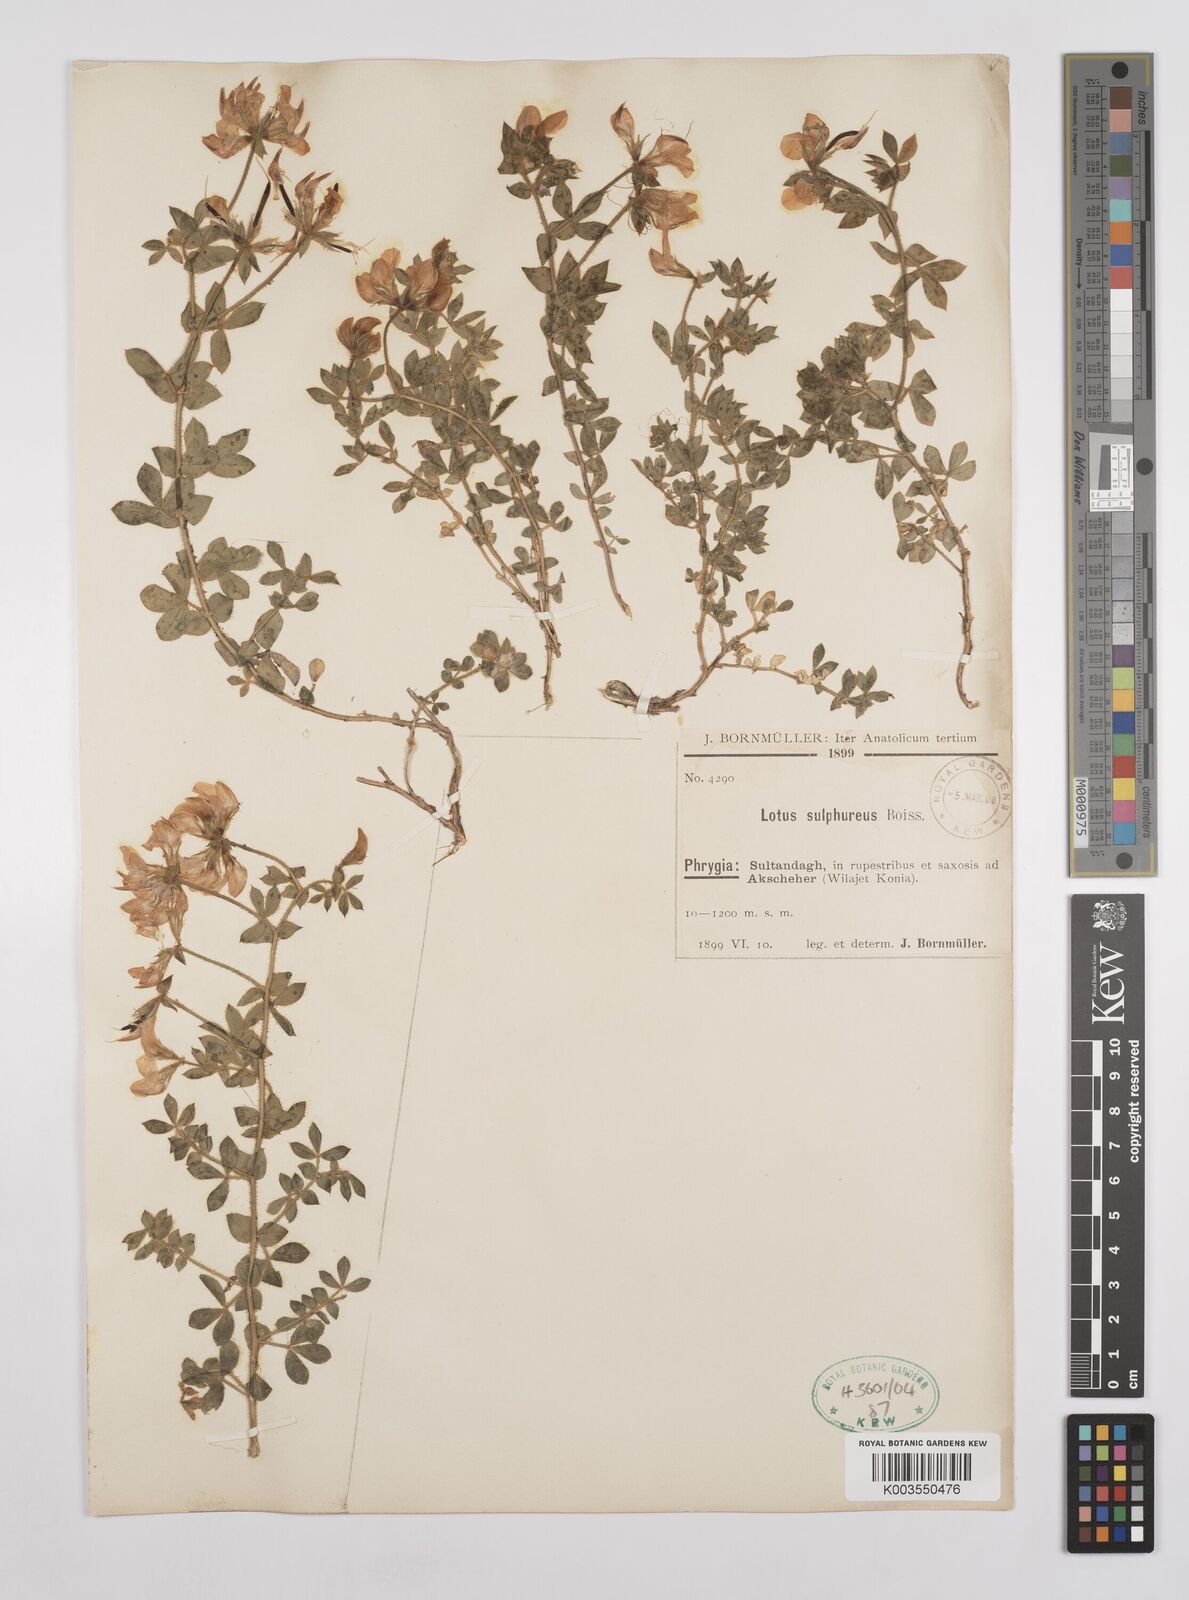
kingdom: Plantae
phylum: Tracheophyta
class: Magnoliopsida
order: Fabales
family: Fabaceae
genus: Lotus
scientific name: Lotus aegaeus
